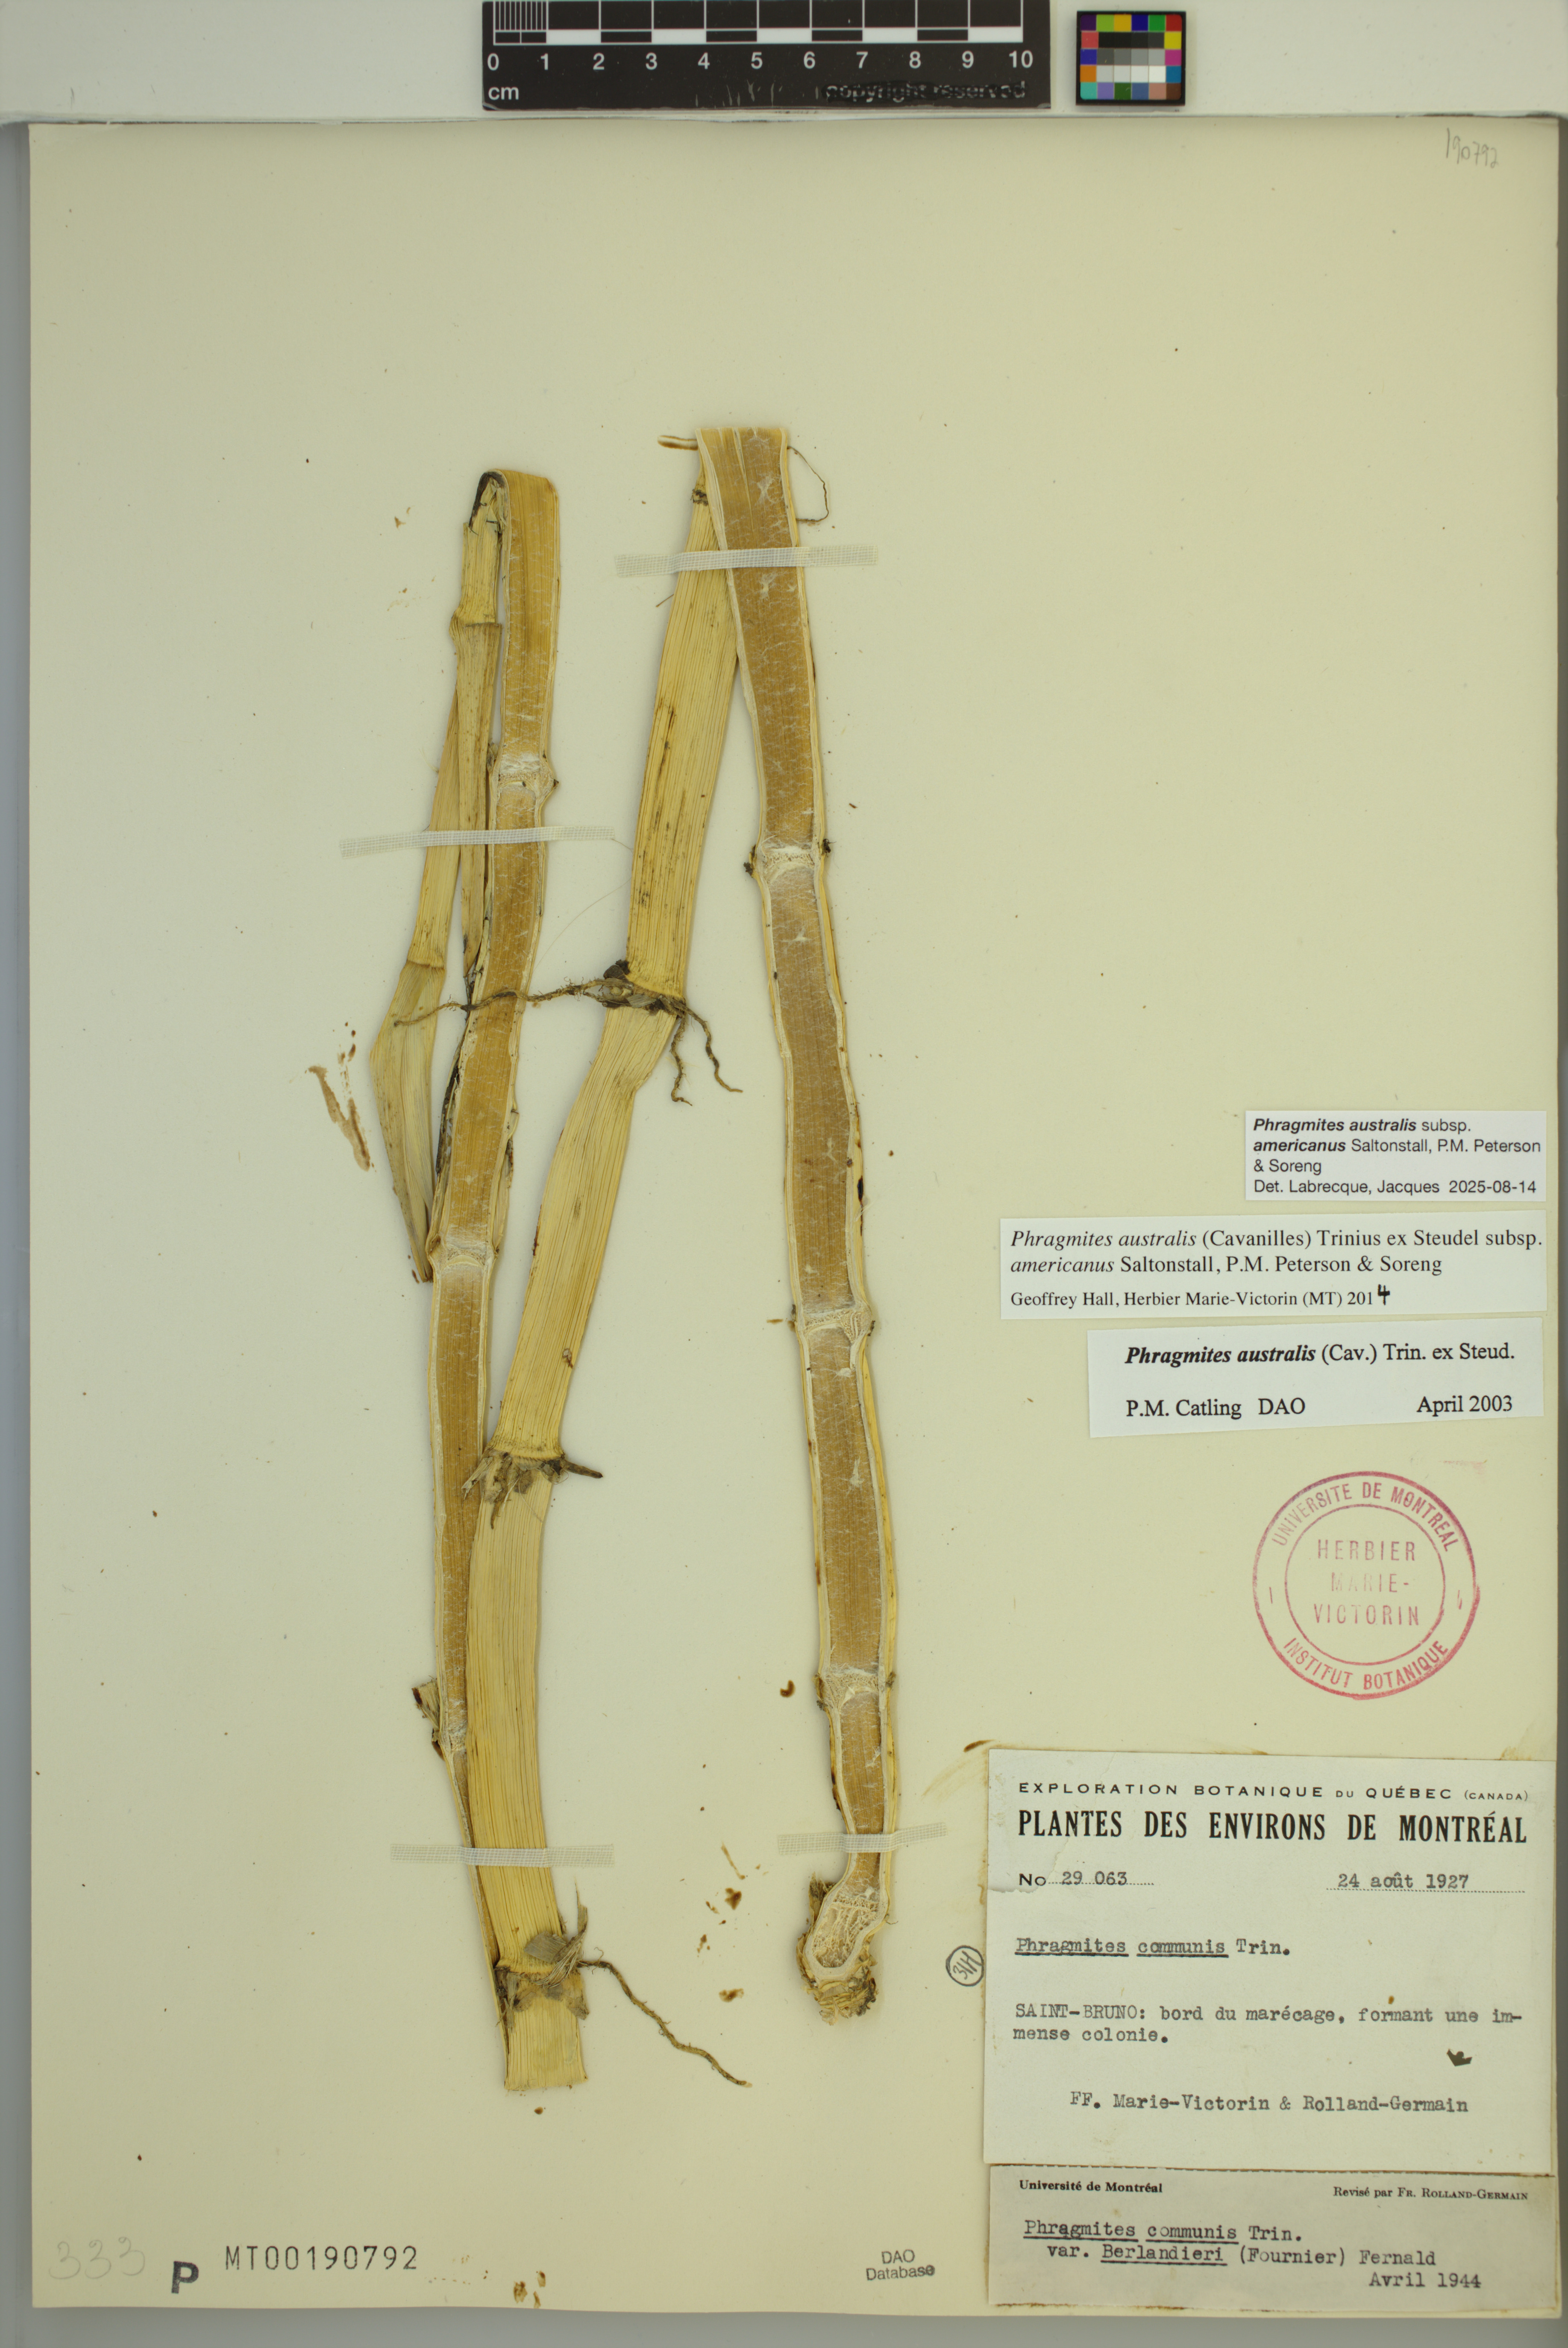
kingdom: Plantae
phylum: Tracheophyta
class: Liliopsida
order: Poales
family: Poaceae
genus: Phragmites
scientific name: Phragmites australis
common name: Common reed
